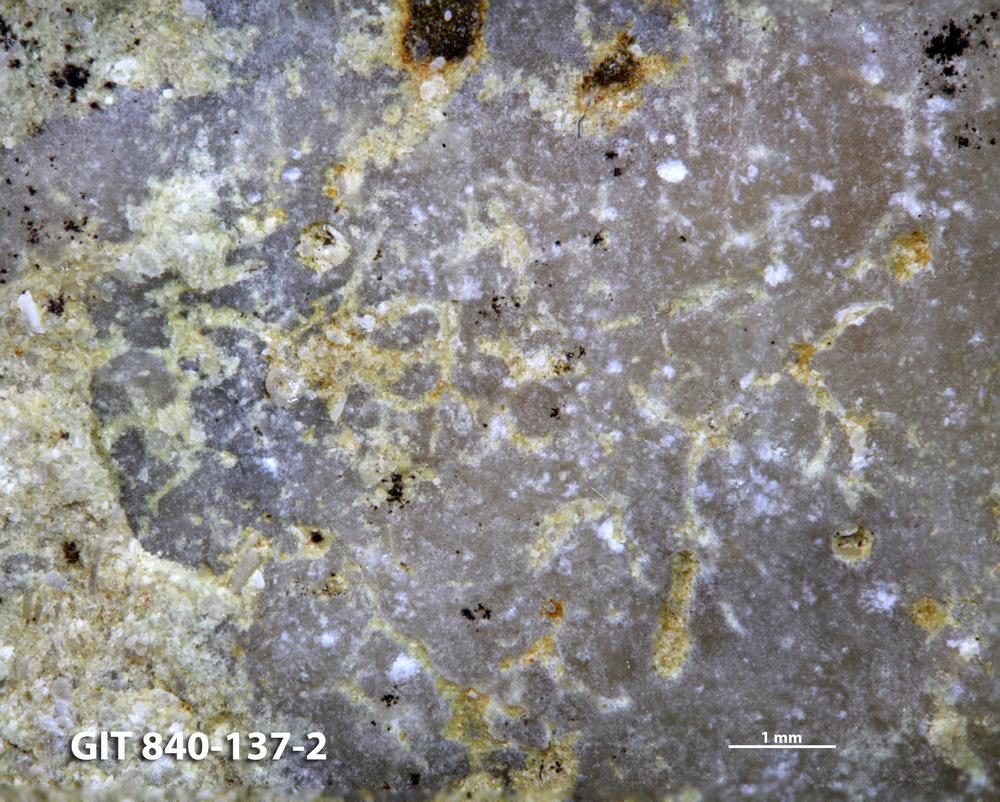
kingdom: Animalia
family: Dendrinidae
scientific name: Dendrinidae
